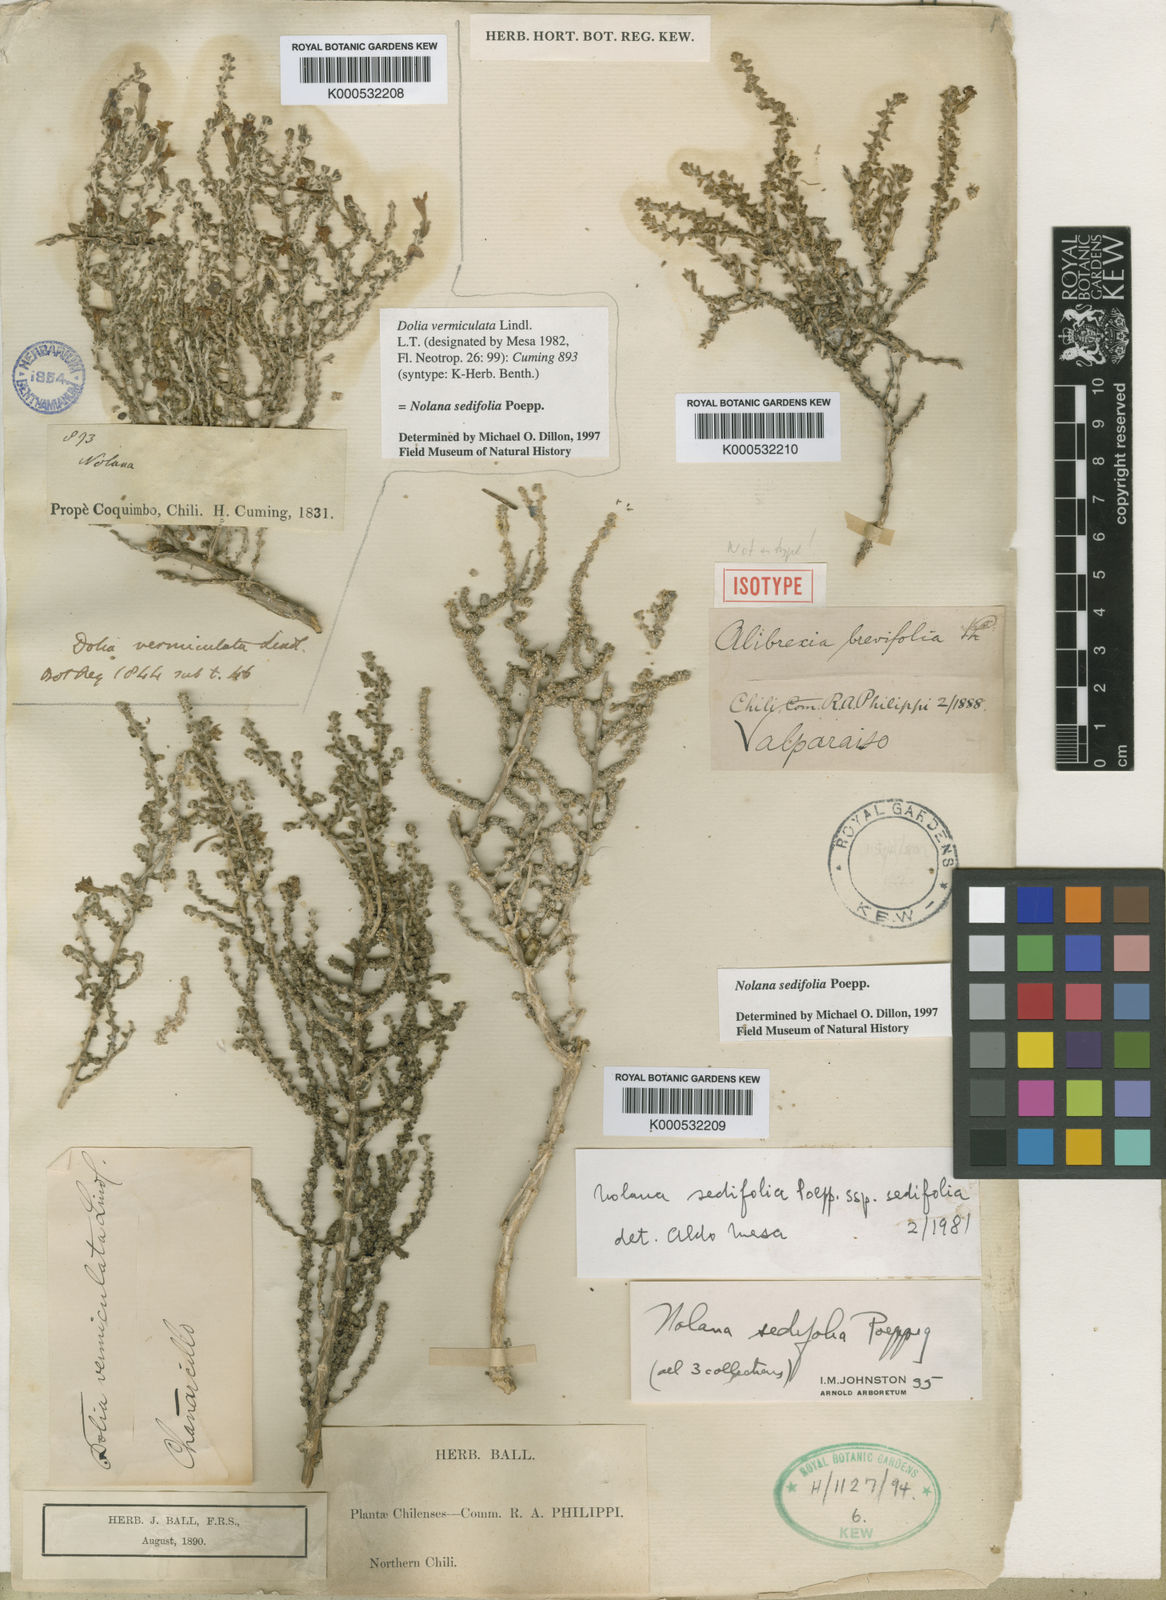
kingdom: Plantae
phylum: Tracheophyta
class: Magnoliopsida
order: Solanales
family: Solanaceae
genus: Nolana
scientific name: Nolana sedifolia
